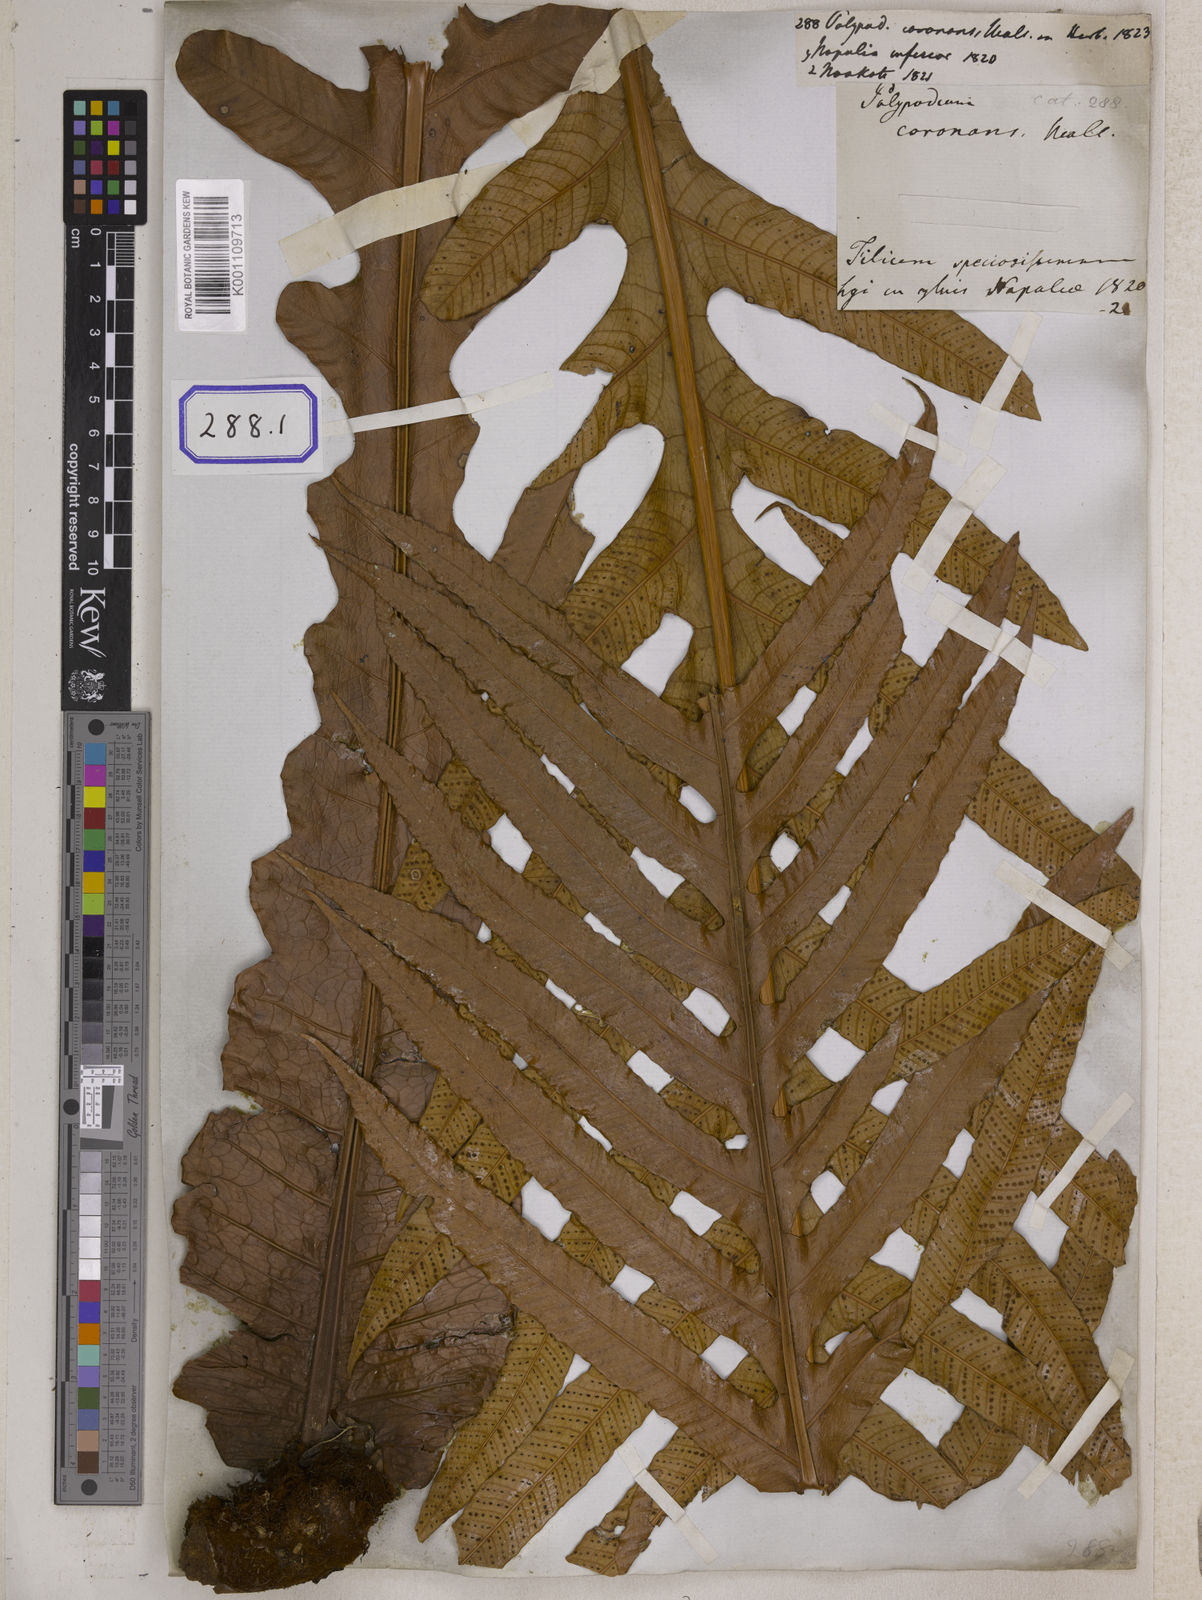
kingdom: Plantae
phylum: Tracheophyta
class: Polypodiopsida
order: Polypodiales
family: Polypodiaceae
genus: Drynaria
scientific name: Drynaria coronans
